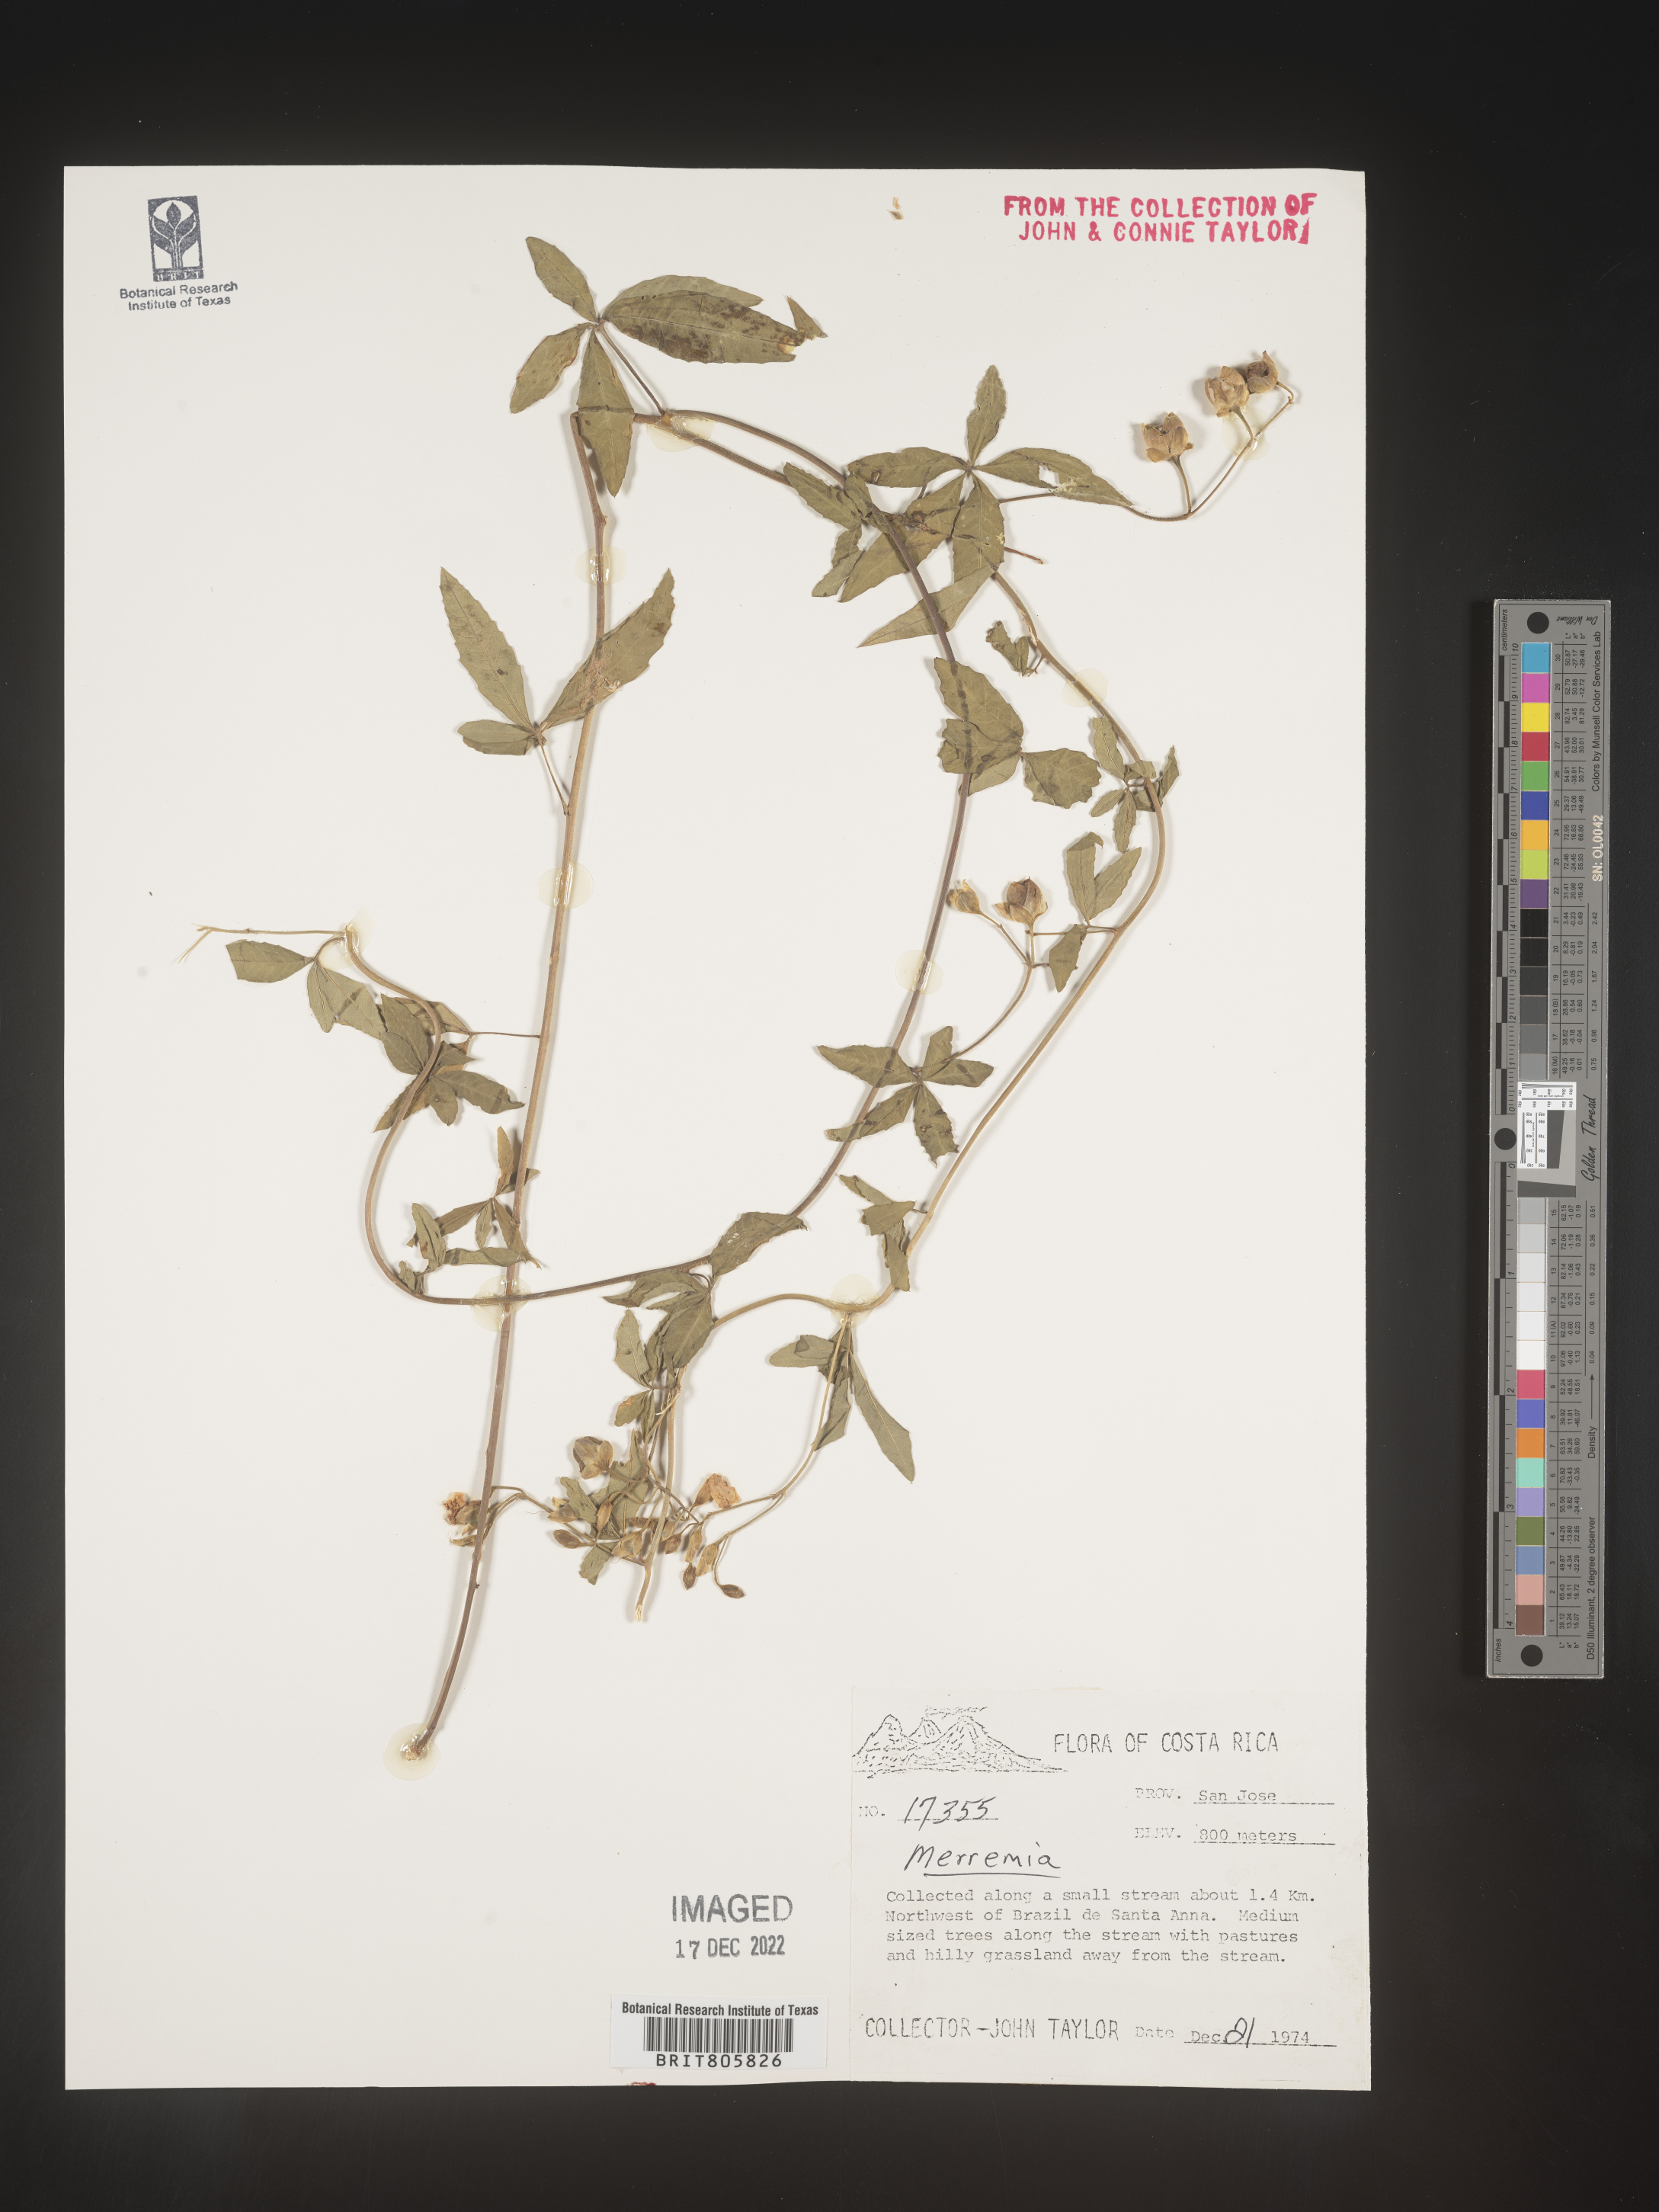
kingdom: Plantae
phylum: Tracheophyta
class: Magnoliopsida
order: Solanales
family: Convolvulaceae
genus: Merremia
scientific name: Merremia
